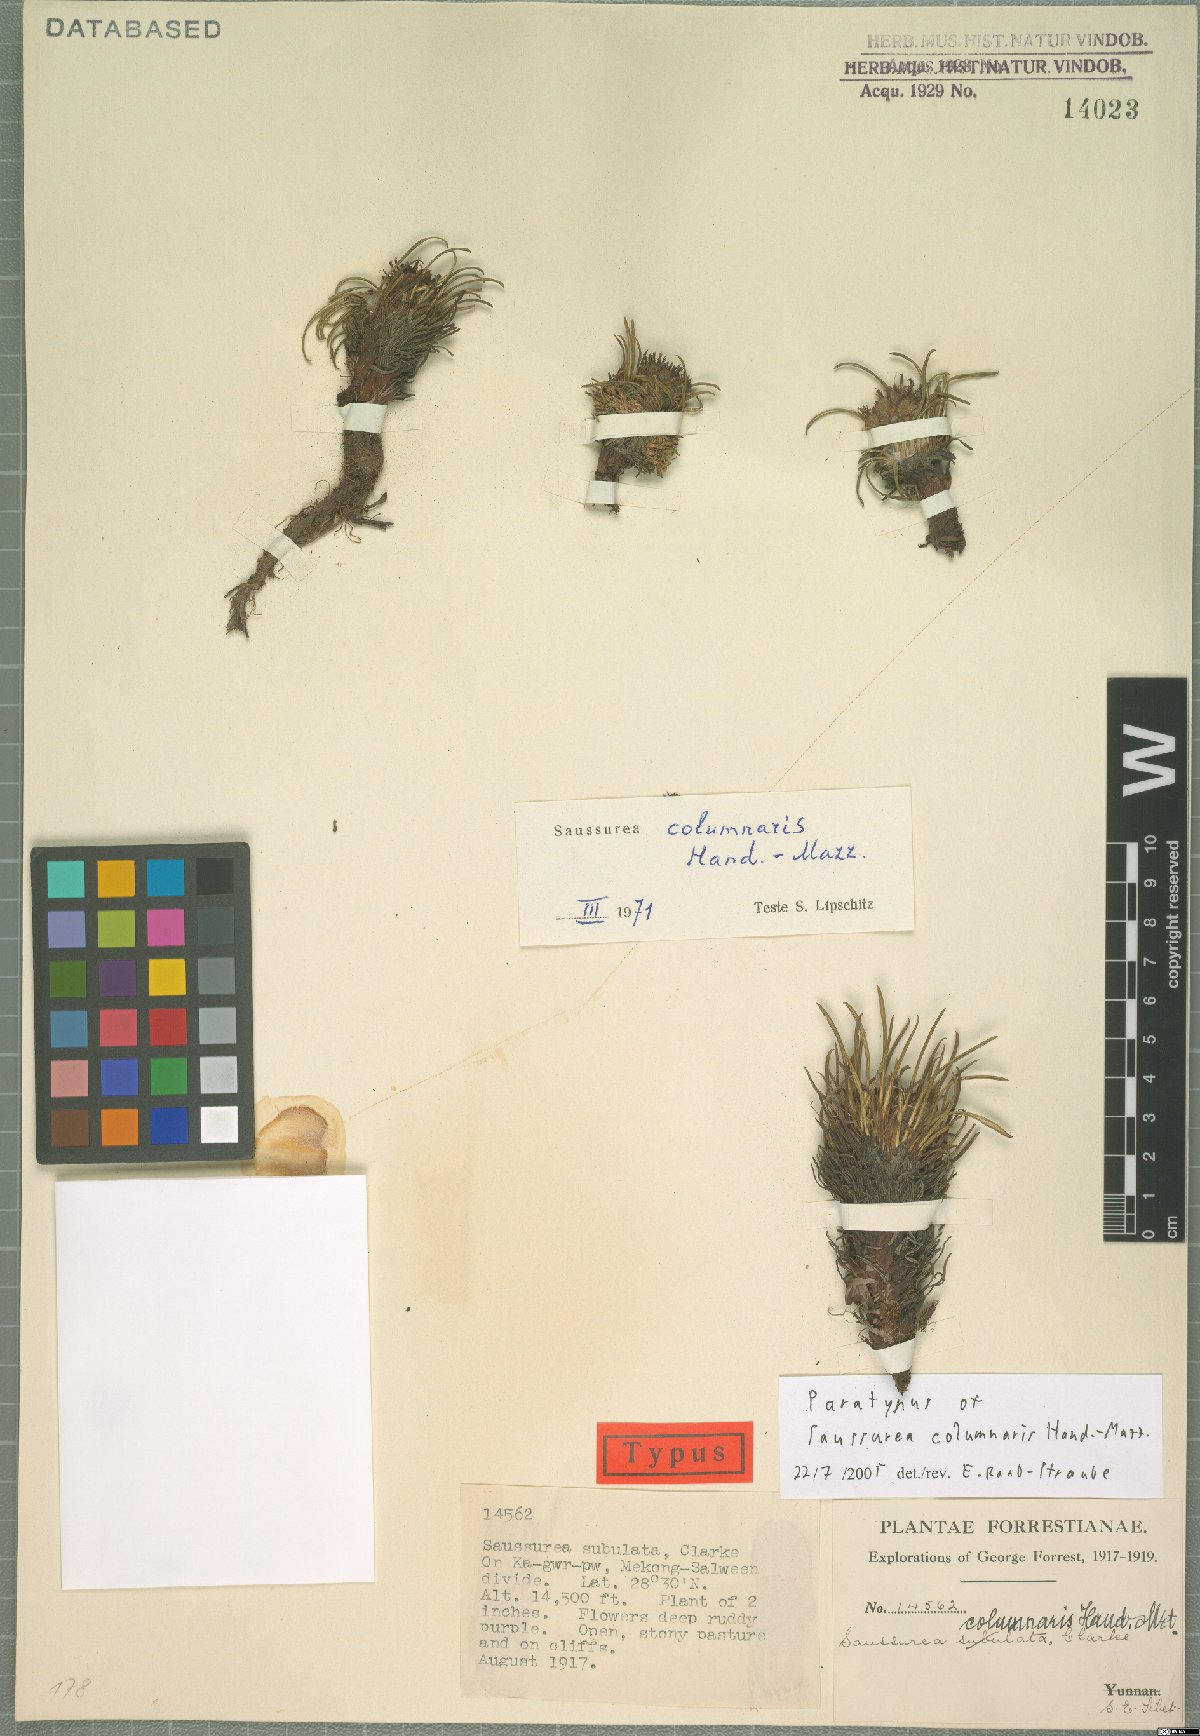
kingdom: Plantae
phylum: Tracheophyta
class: Magnoliopsida
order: Asterales
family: Asteraceae
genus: Saussurea
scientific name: Saussurea columnaris
